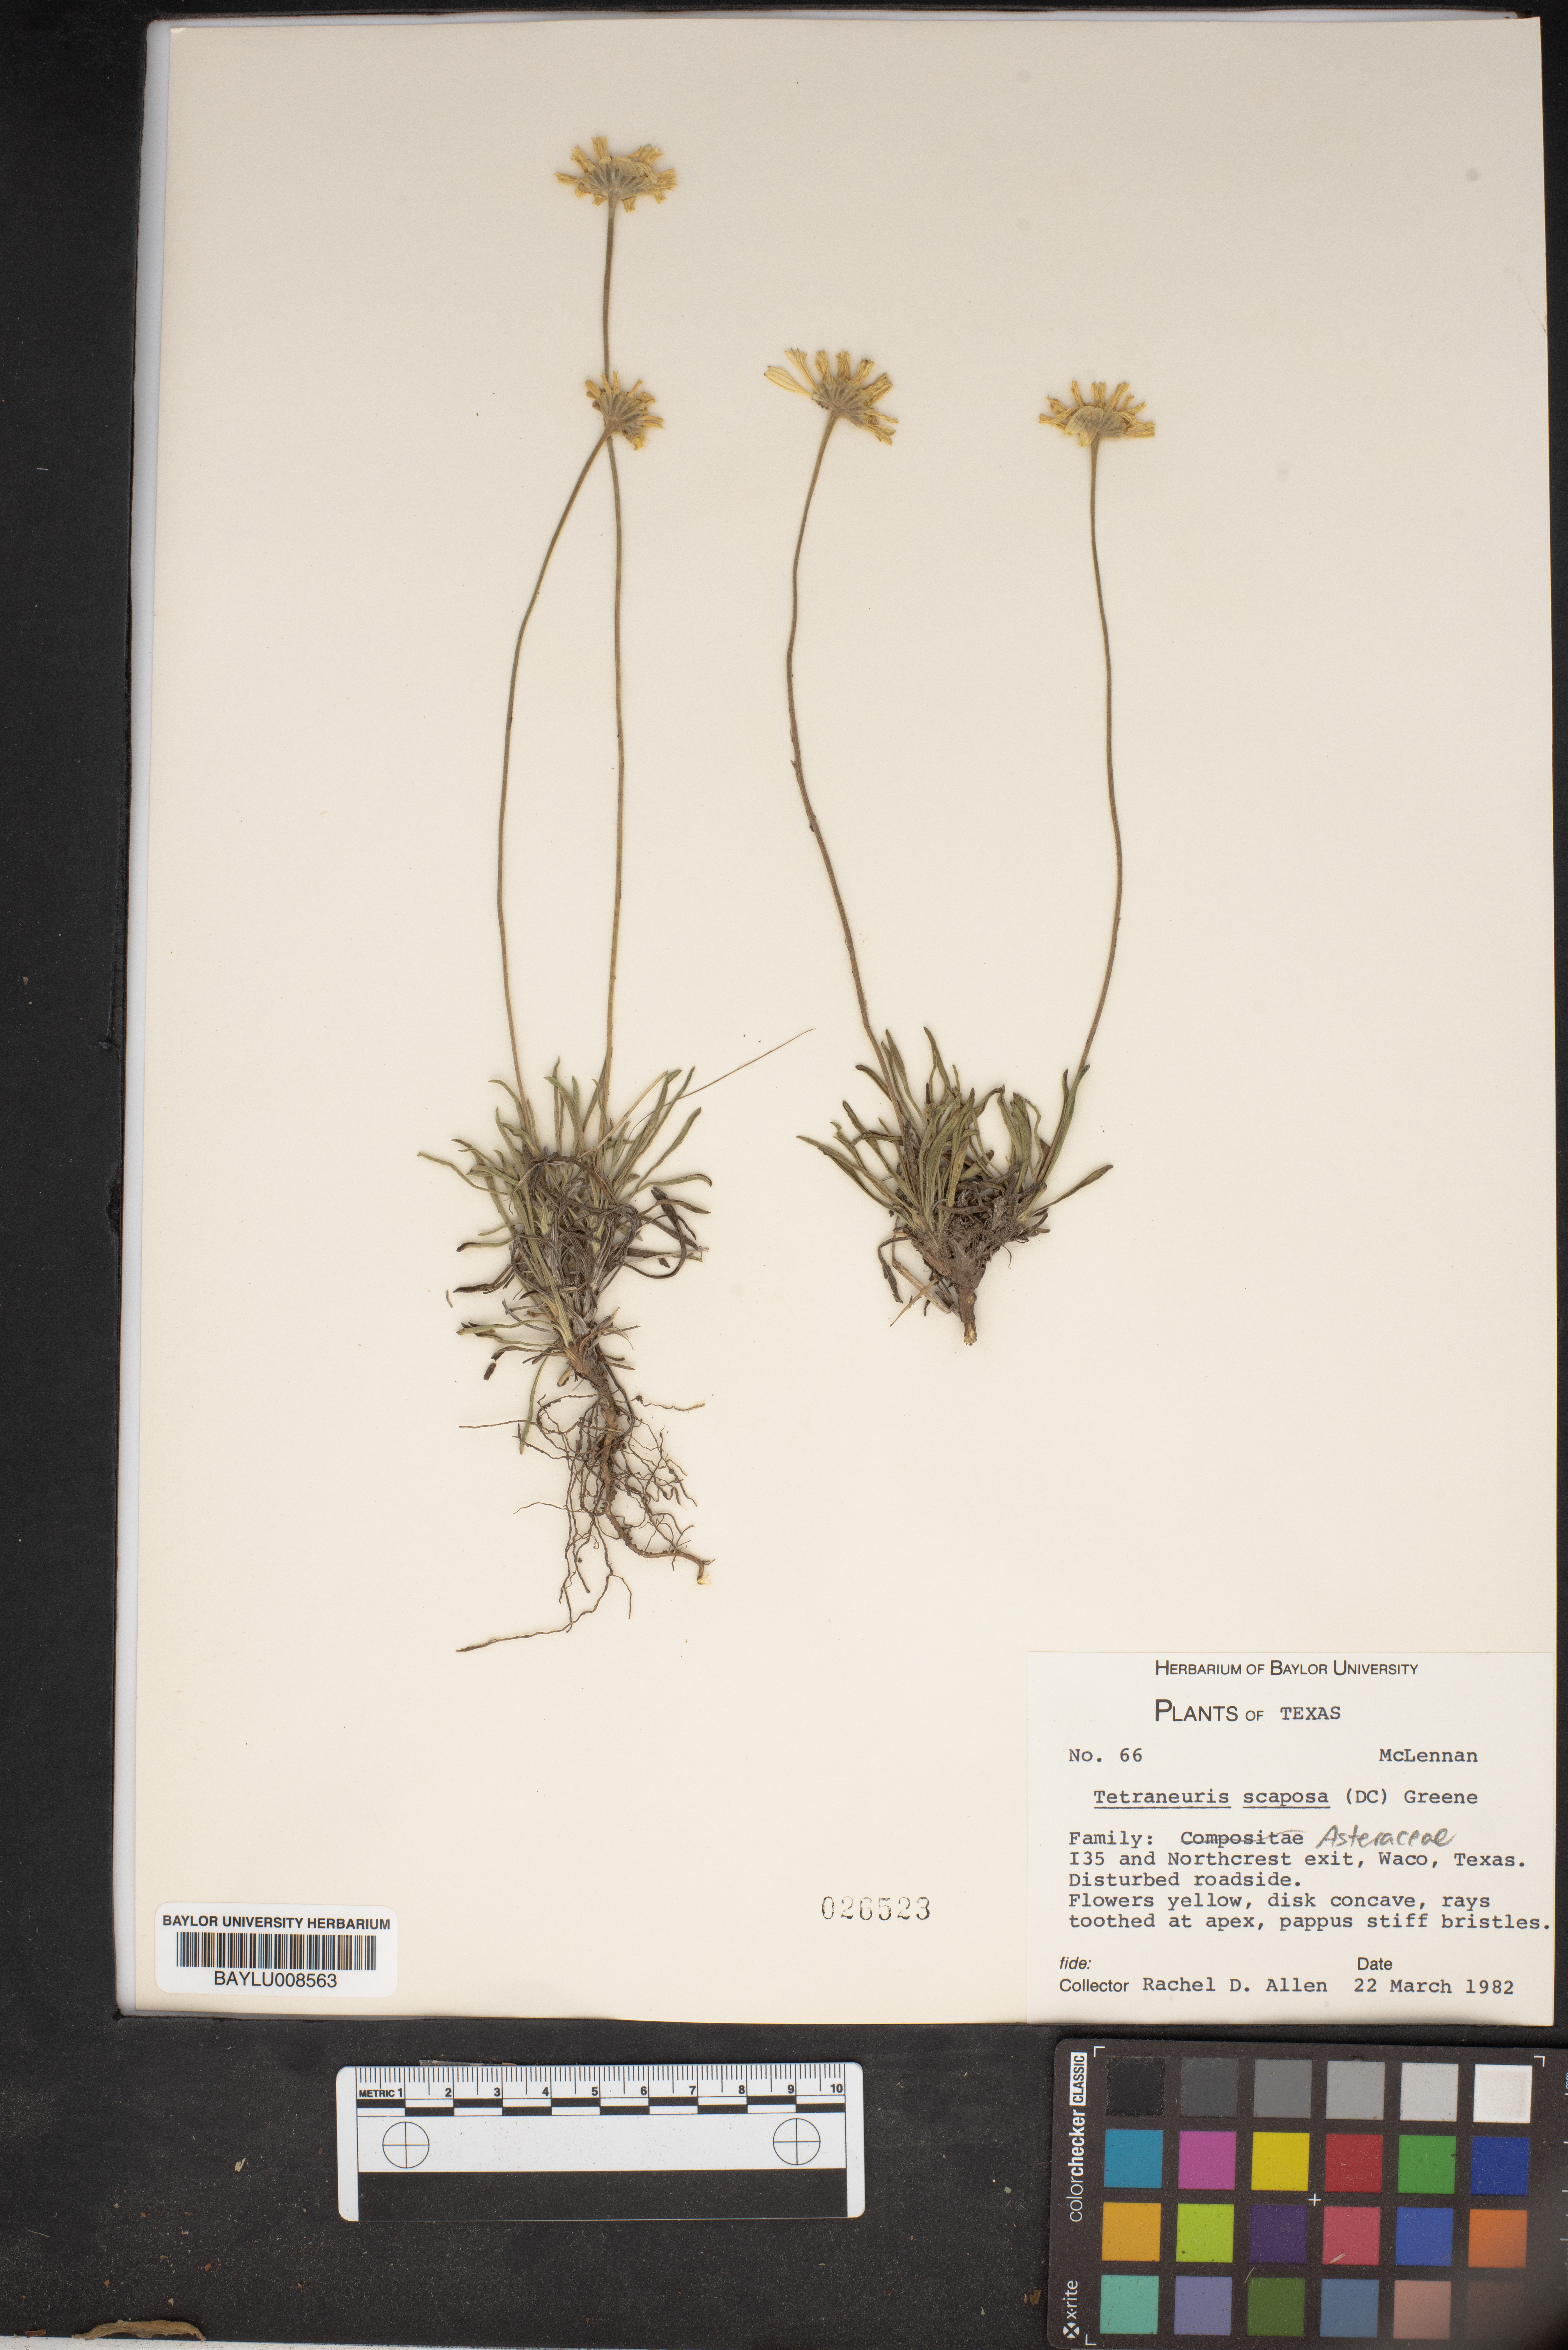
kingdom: Plantae
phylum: Tracheophyta
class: Magnoliopsida
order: Asterales
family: Asteraceae
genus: Tetraneuris
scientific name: Tetraneuris scaposa
